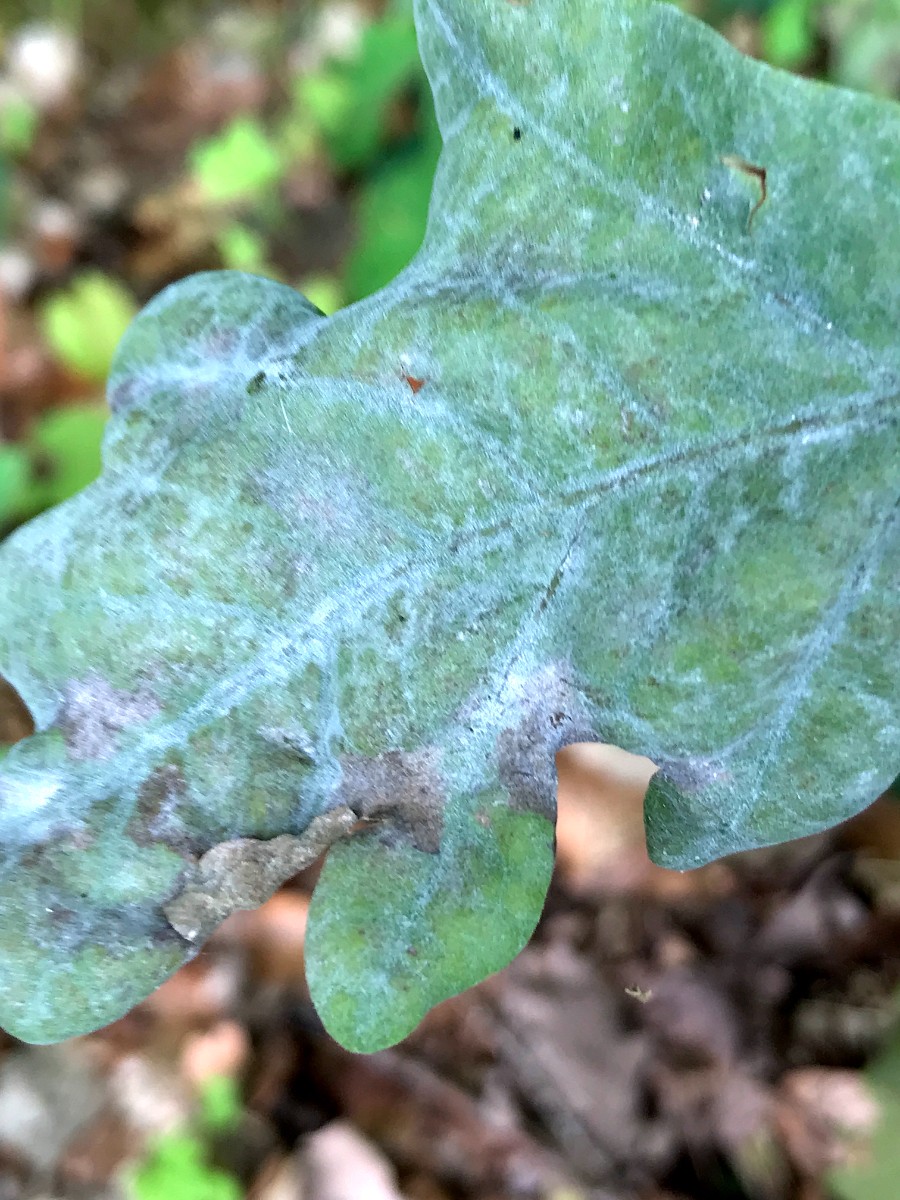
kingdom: Fungi
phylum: Ascomycota
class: Leotiomycetes
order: Helotiales
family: Erysiphaceae
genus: Erysiphe
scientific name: Erysiphe alphitoides
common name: ege-meldug
